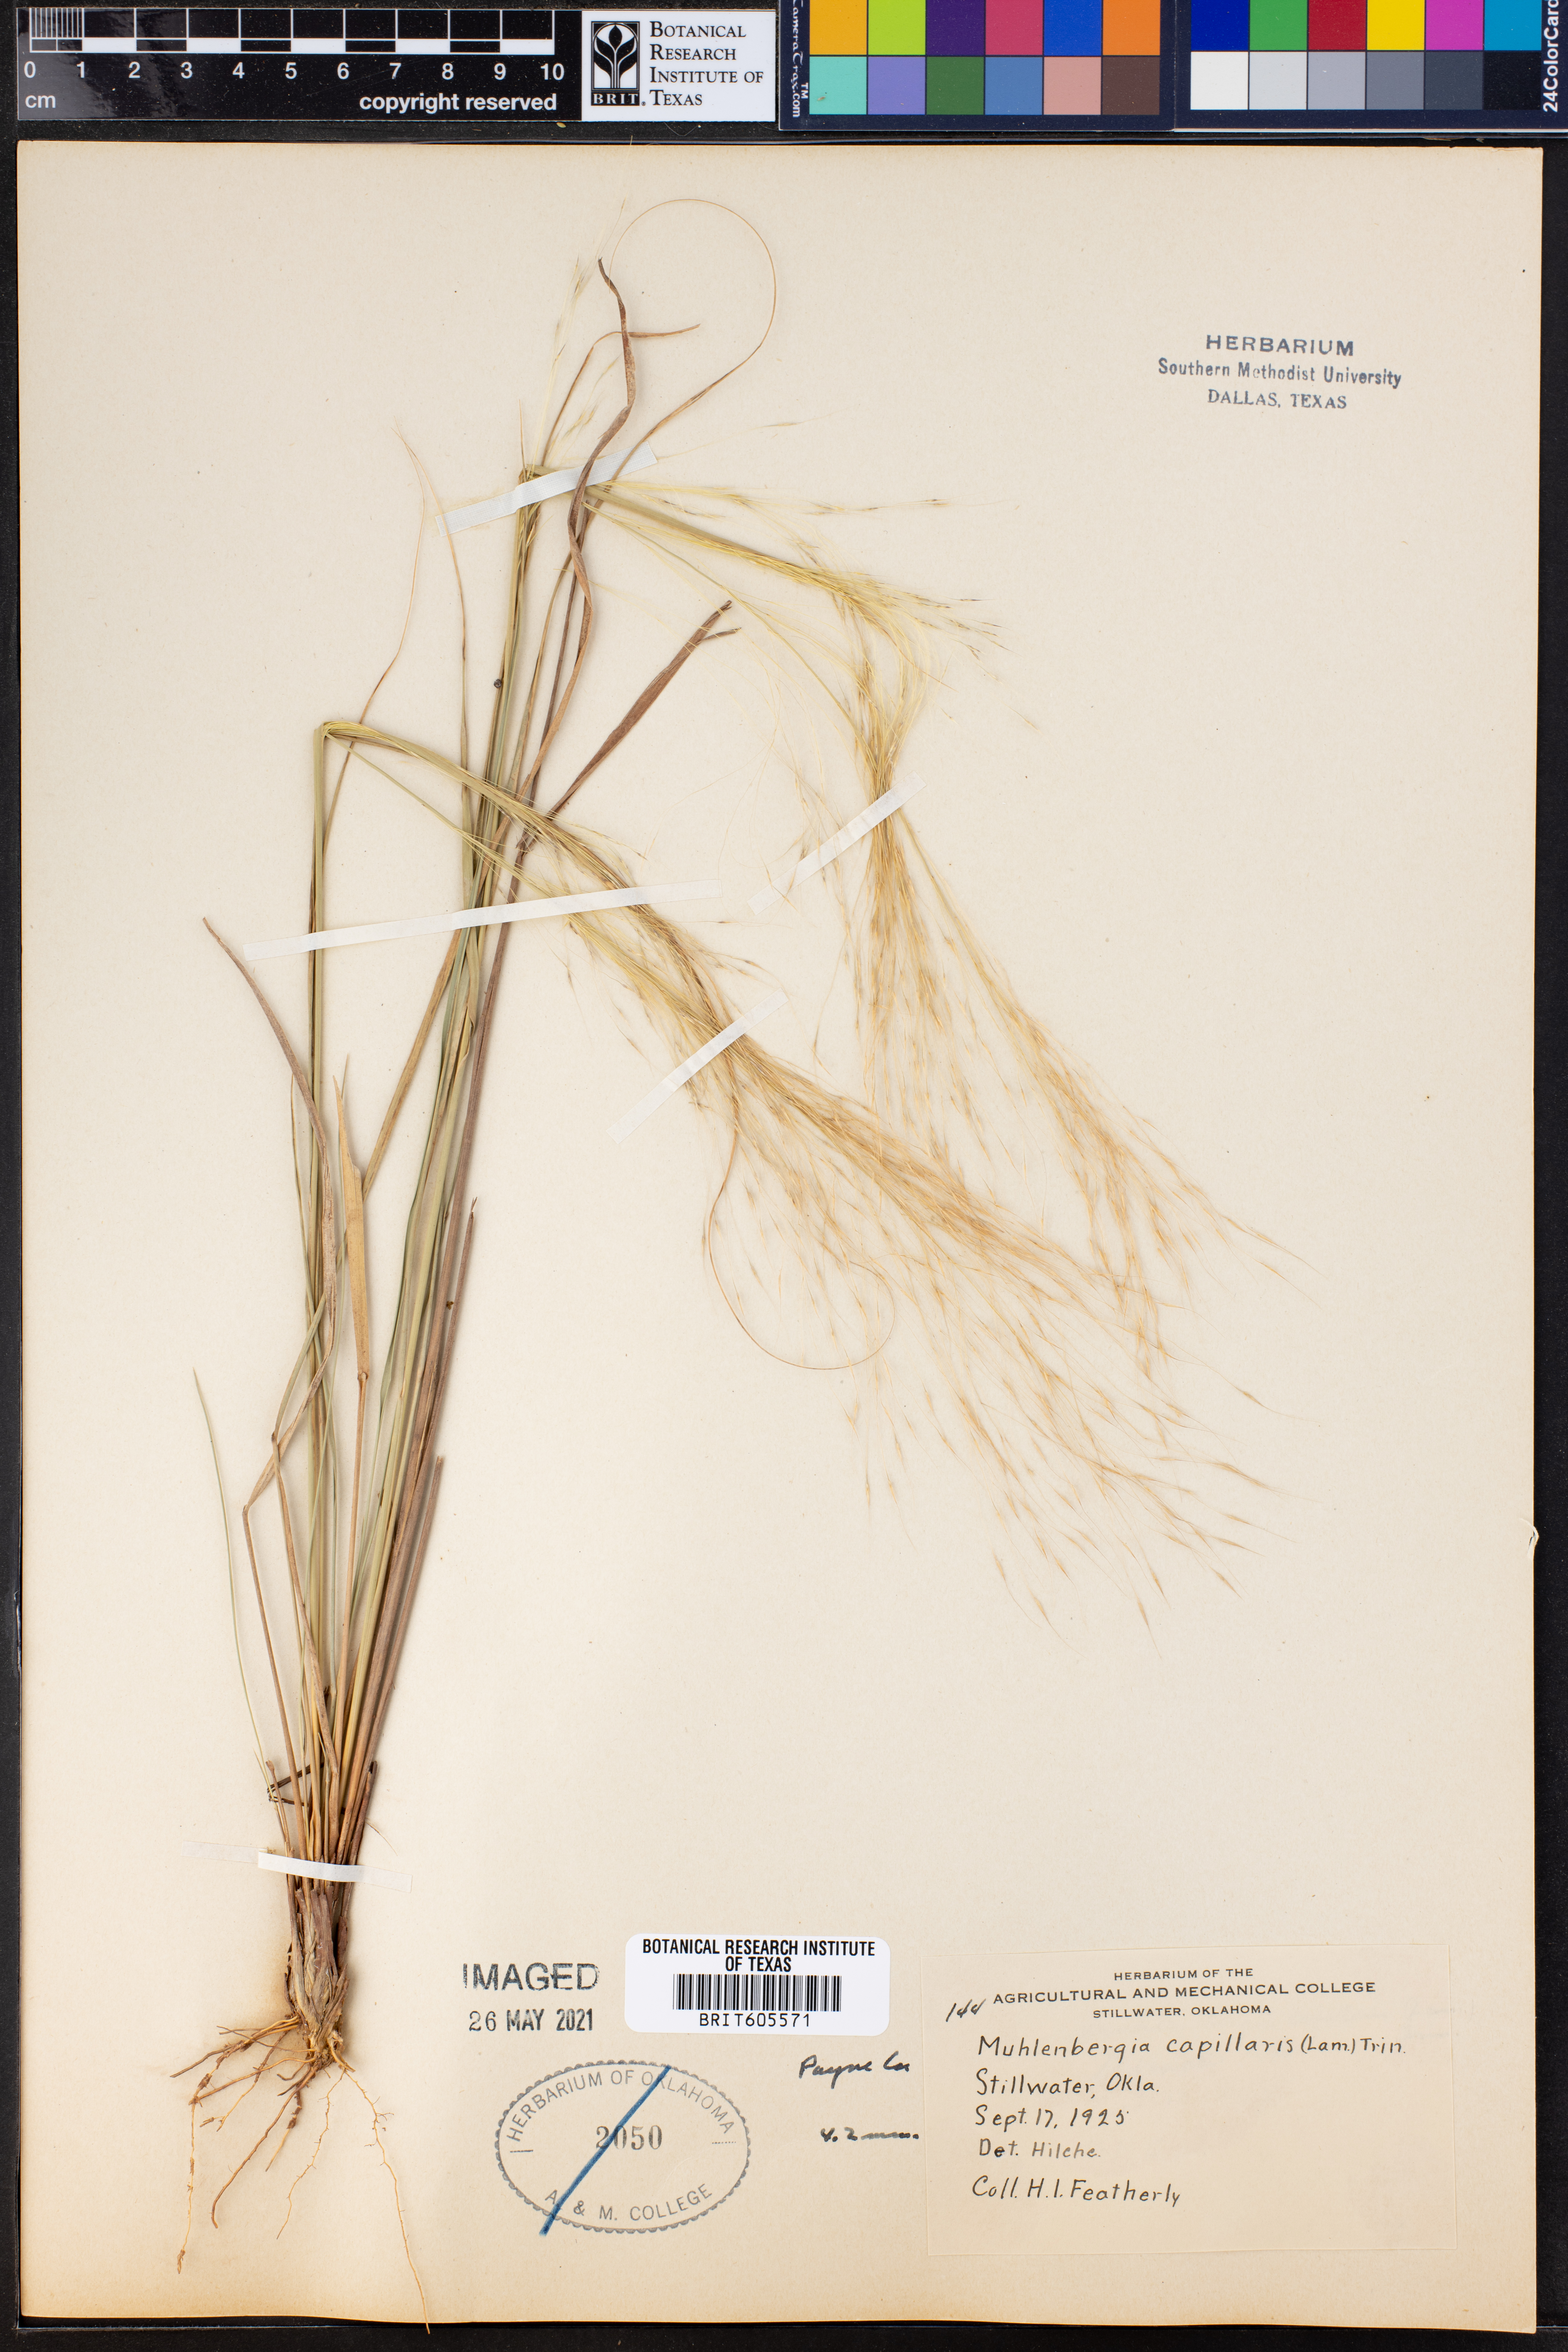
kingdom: Plantae
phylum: Tracheophyta
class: Liliopsida
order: Poales
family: Poaceae
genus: Muhlenbergia
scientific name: Muhlenbergia capillaris
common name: Purple grass
